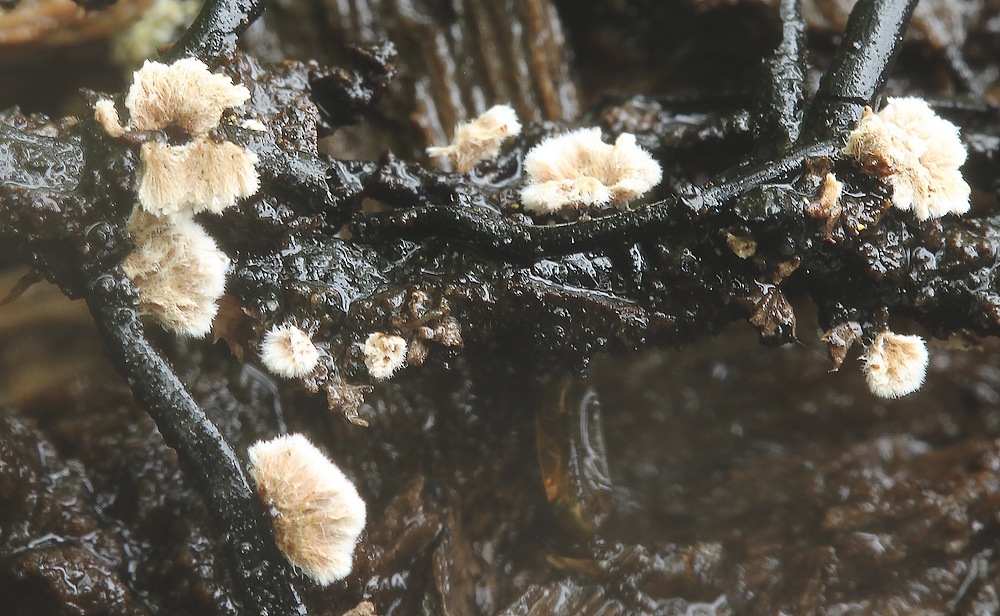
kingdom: Fungi
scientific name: Fungi
